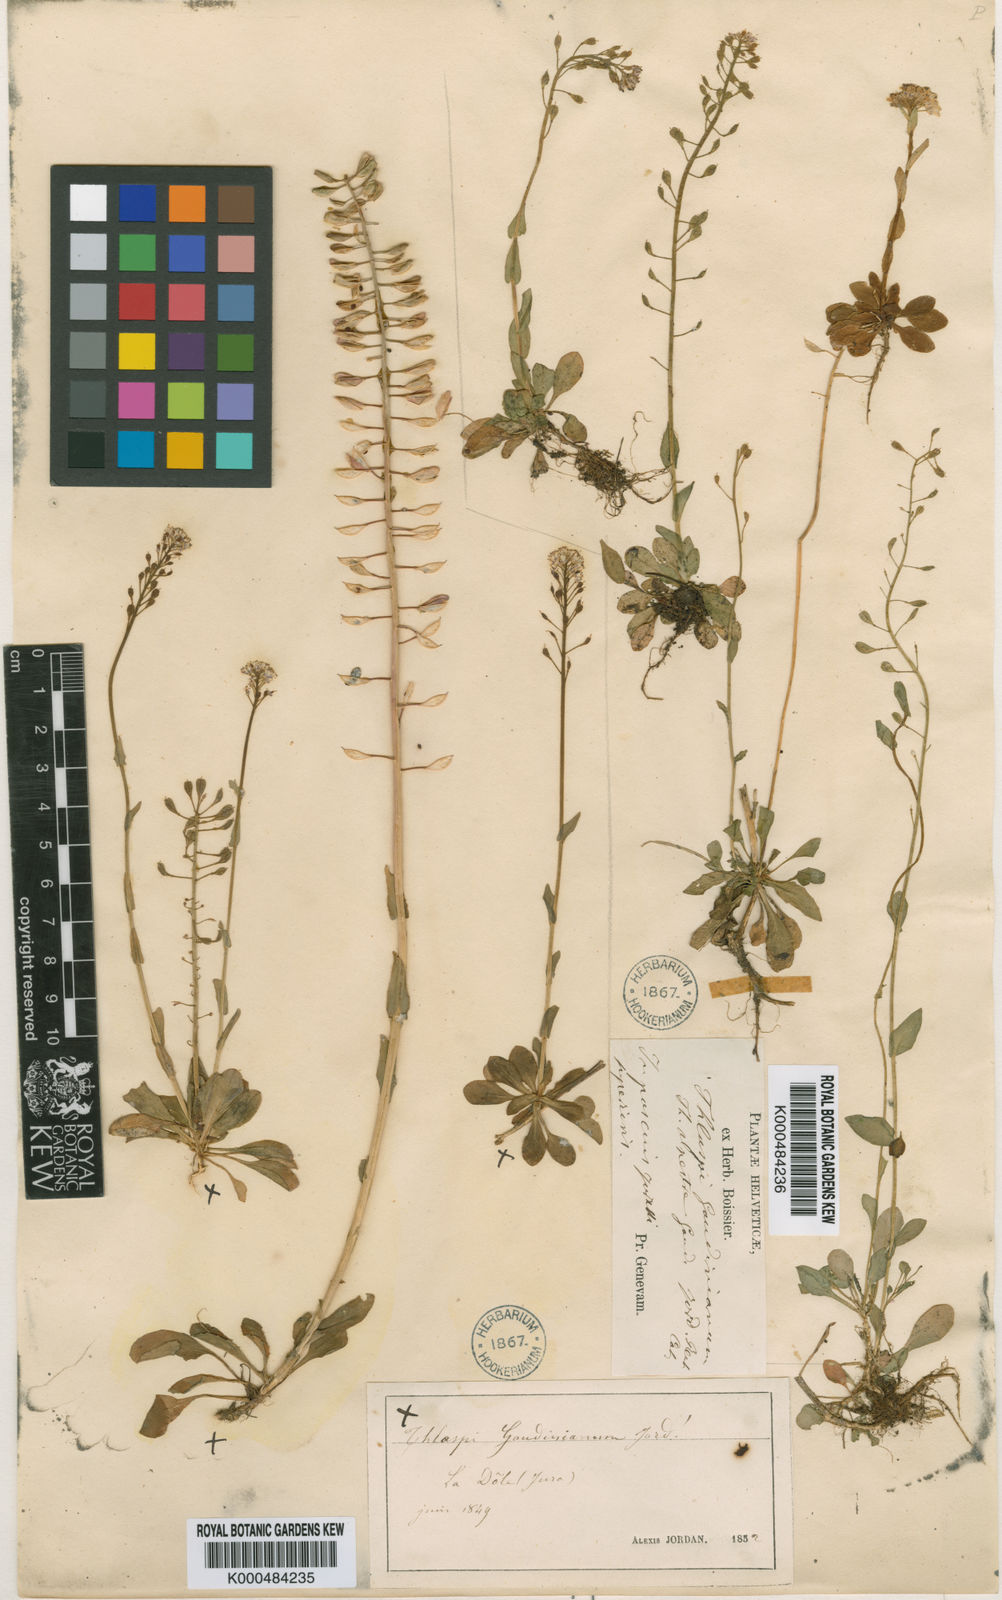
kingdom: Plantae
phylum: Tracheophyta
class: Magnoliopsida
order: Brassicales
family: Brassicaceae
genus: Noccaea
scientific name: Noccaea alpestris
